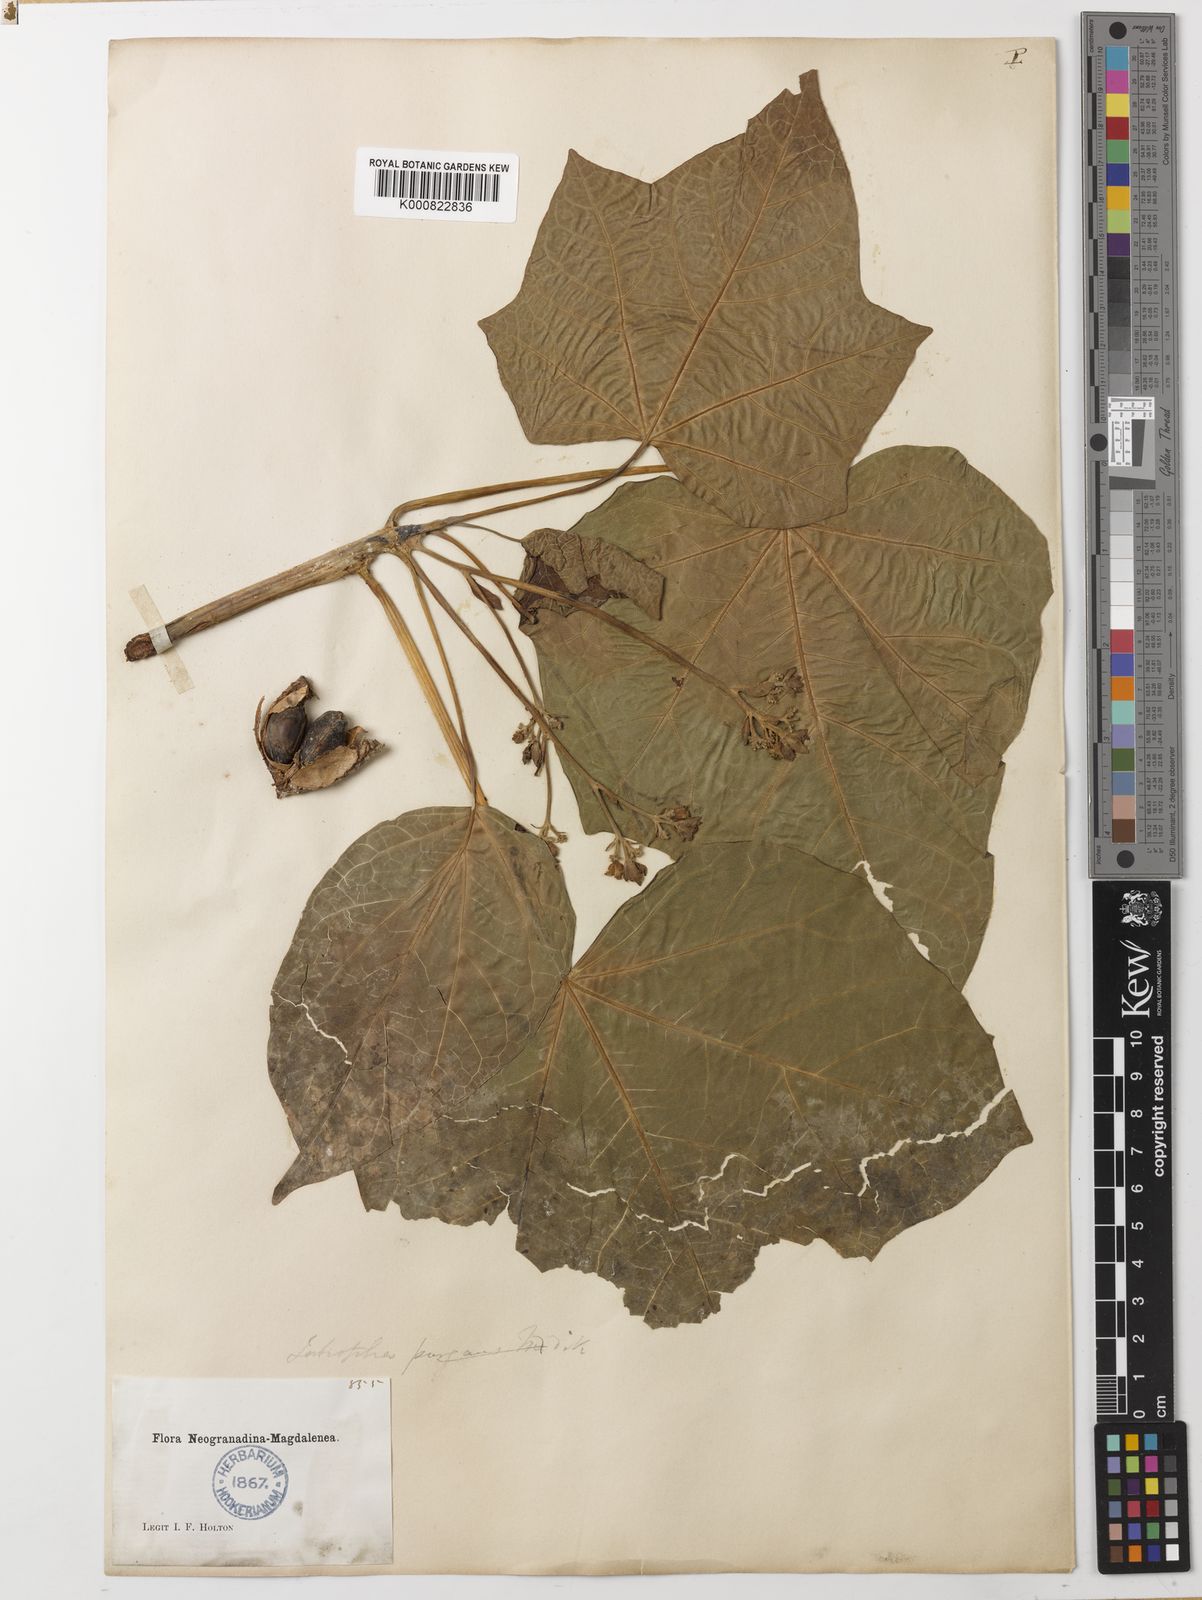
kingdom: Plantae
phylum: Tracheophyta
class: Magnoliopsida
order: Malpighiales
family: Euphorbiaceae
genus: Jatropha
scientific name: Jatropha curcas
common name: Barbados nut
